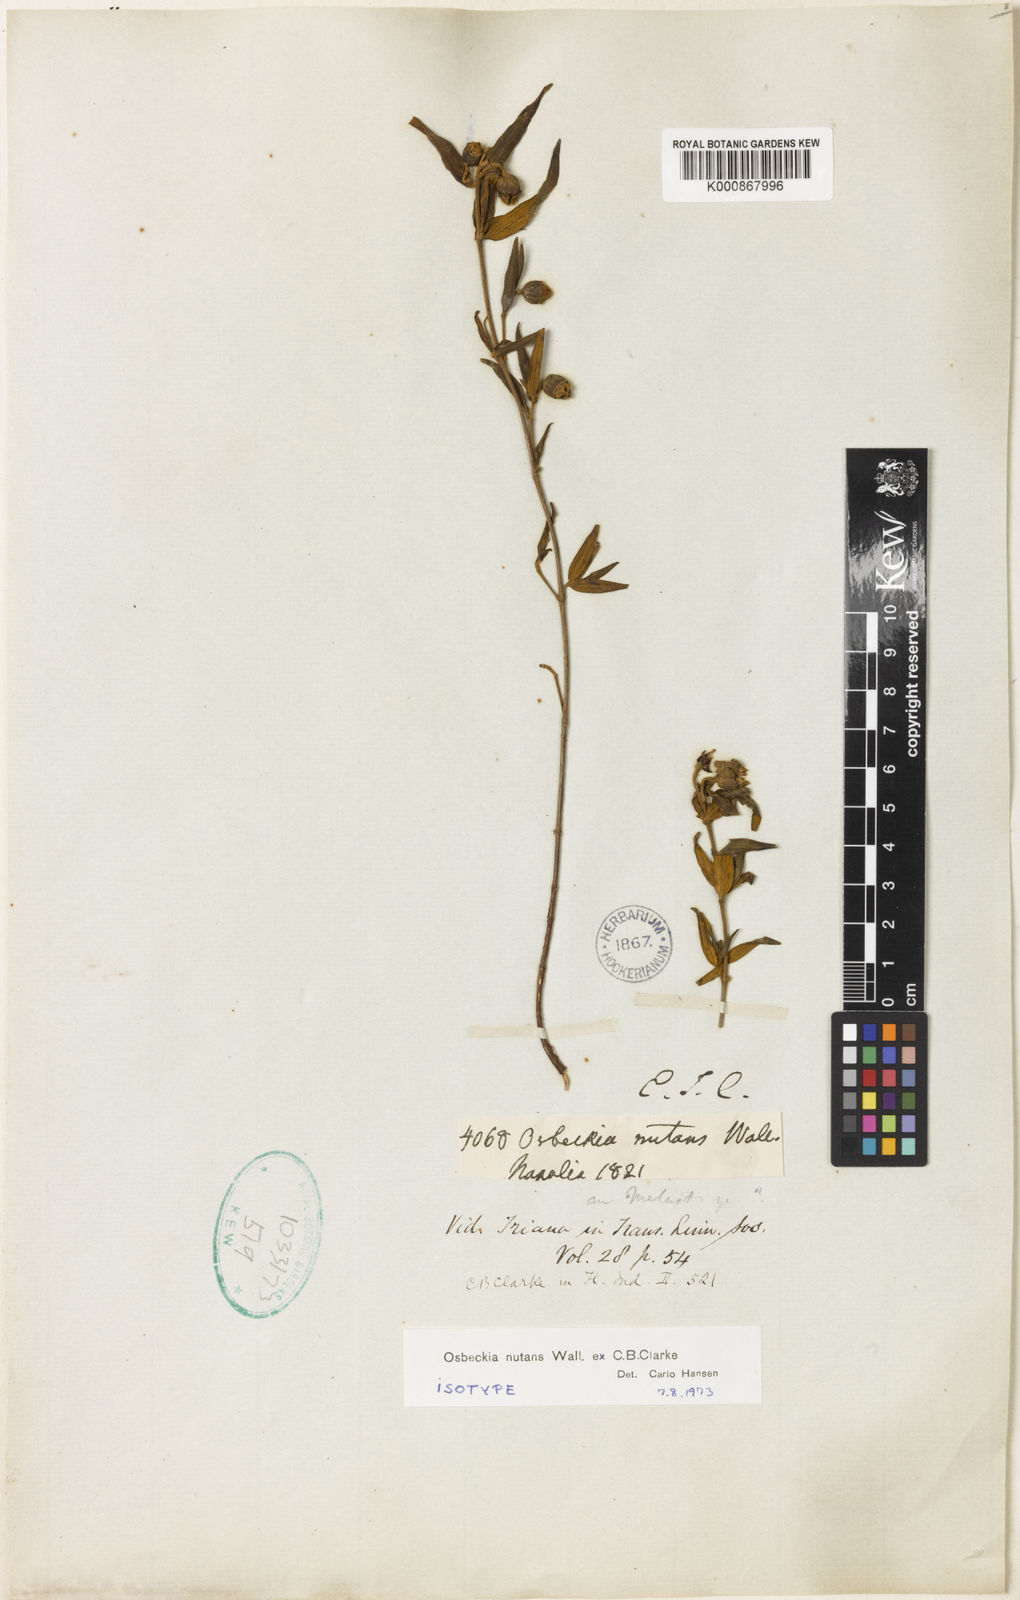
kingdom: Plantae
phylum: Tracheophyta
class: Magnoliopsida
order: Myrtales
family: Melastomataceae
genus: Osbeckia
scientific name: Osbeckia nutans
